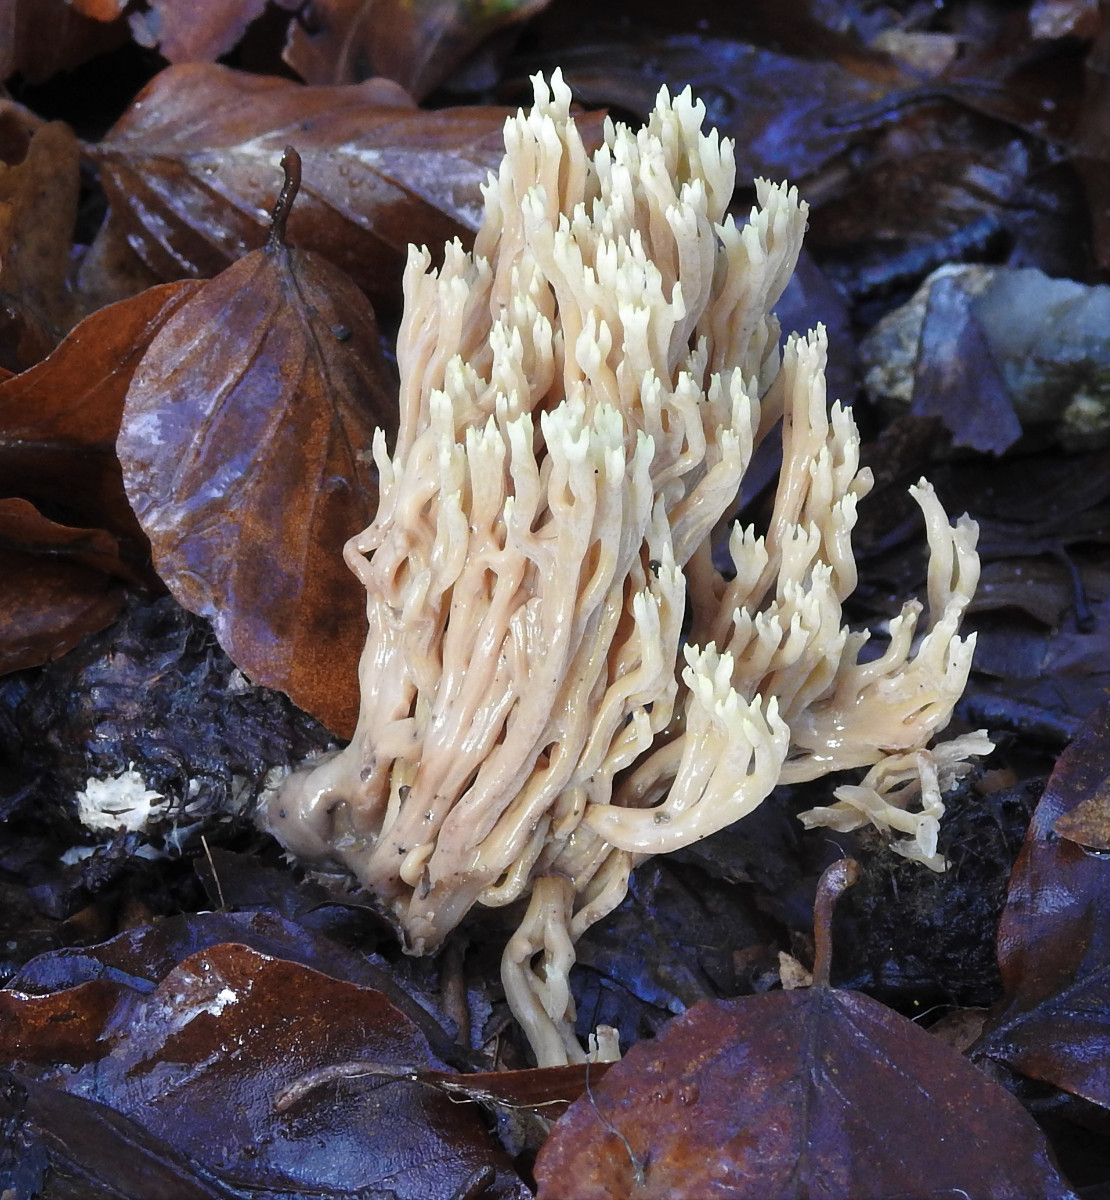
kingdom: Fungi
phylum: Basidiomycota
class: Agaricomycetes
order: Gomphales
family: Gomphaceae
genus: Ramaria
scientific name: Ramaria stricta
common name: rank koralsvamp
